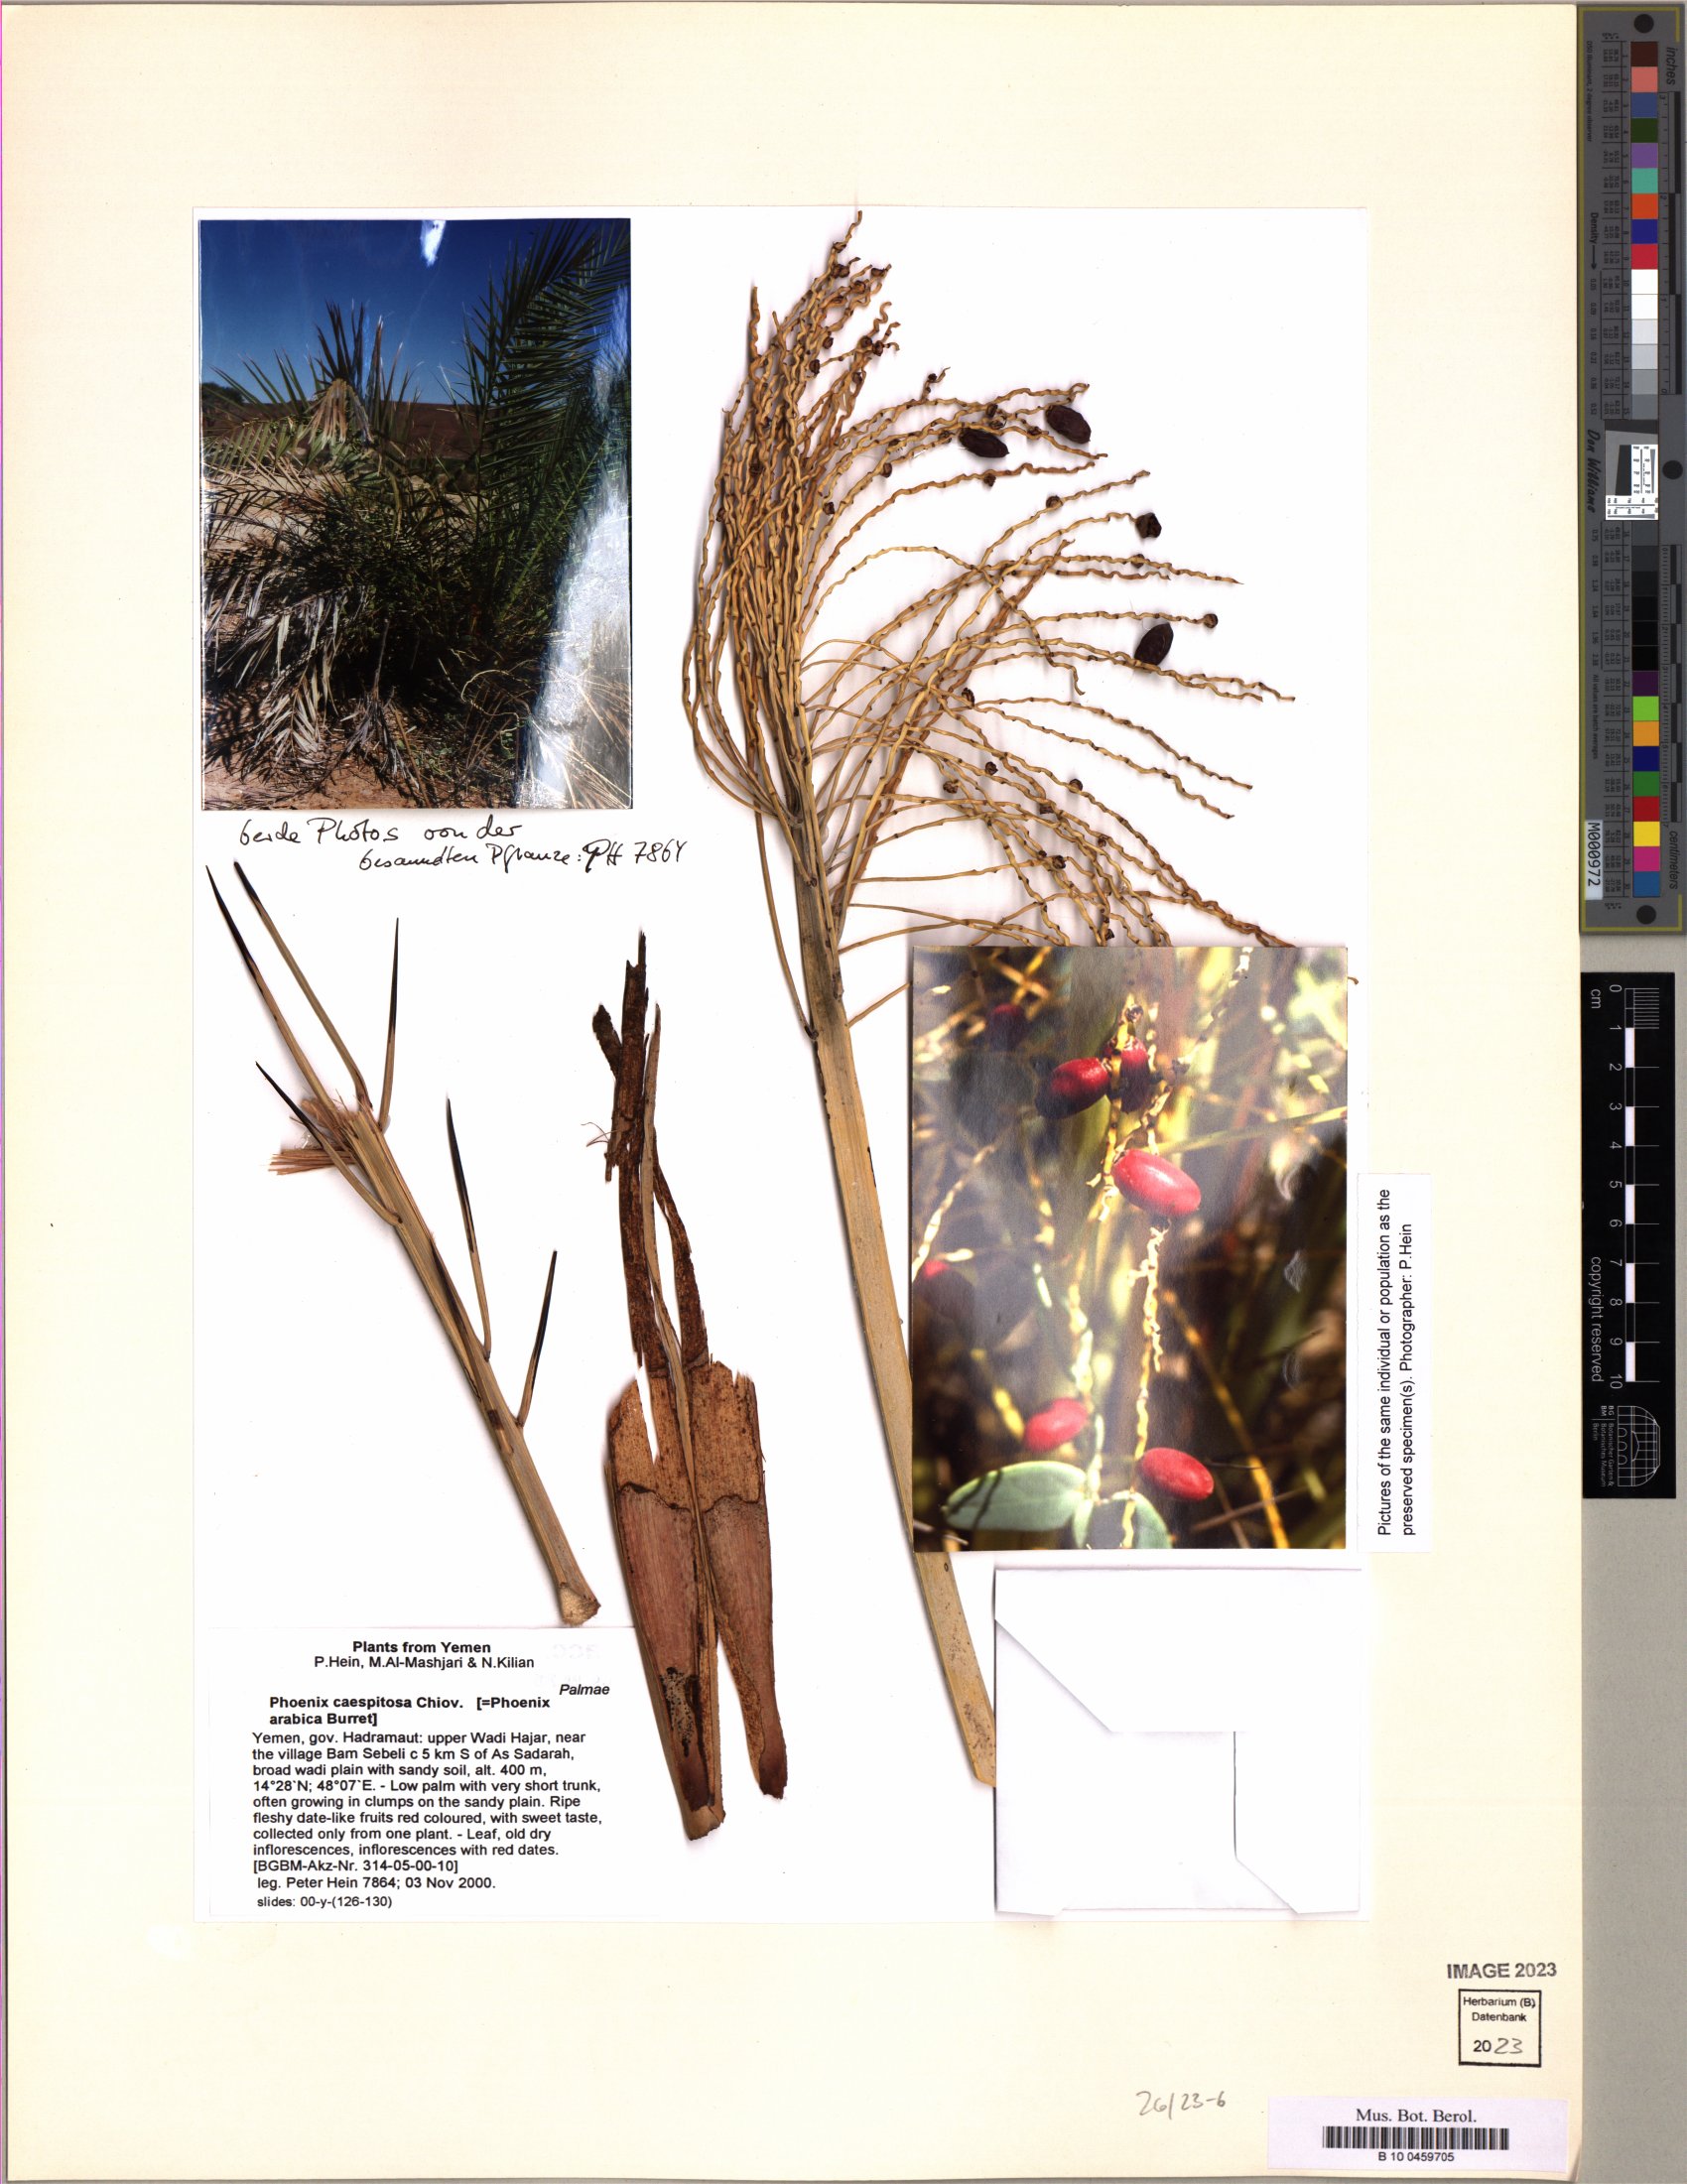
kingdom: Plantae
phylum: Tracheophyta
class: Liliopsida
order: Arecales
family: Arecaceae
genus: Phoenix
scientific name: Phoenix caespitosa
